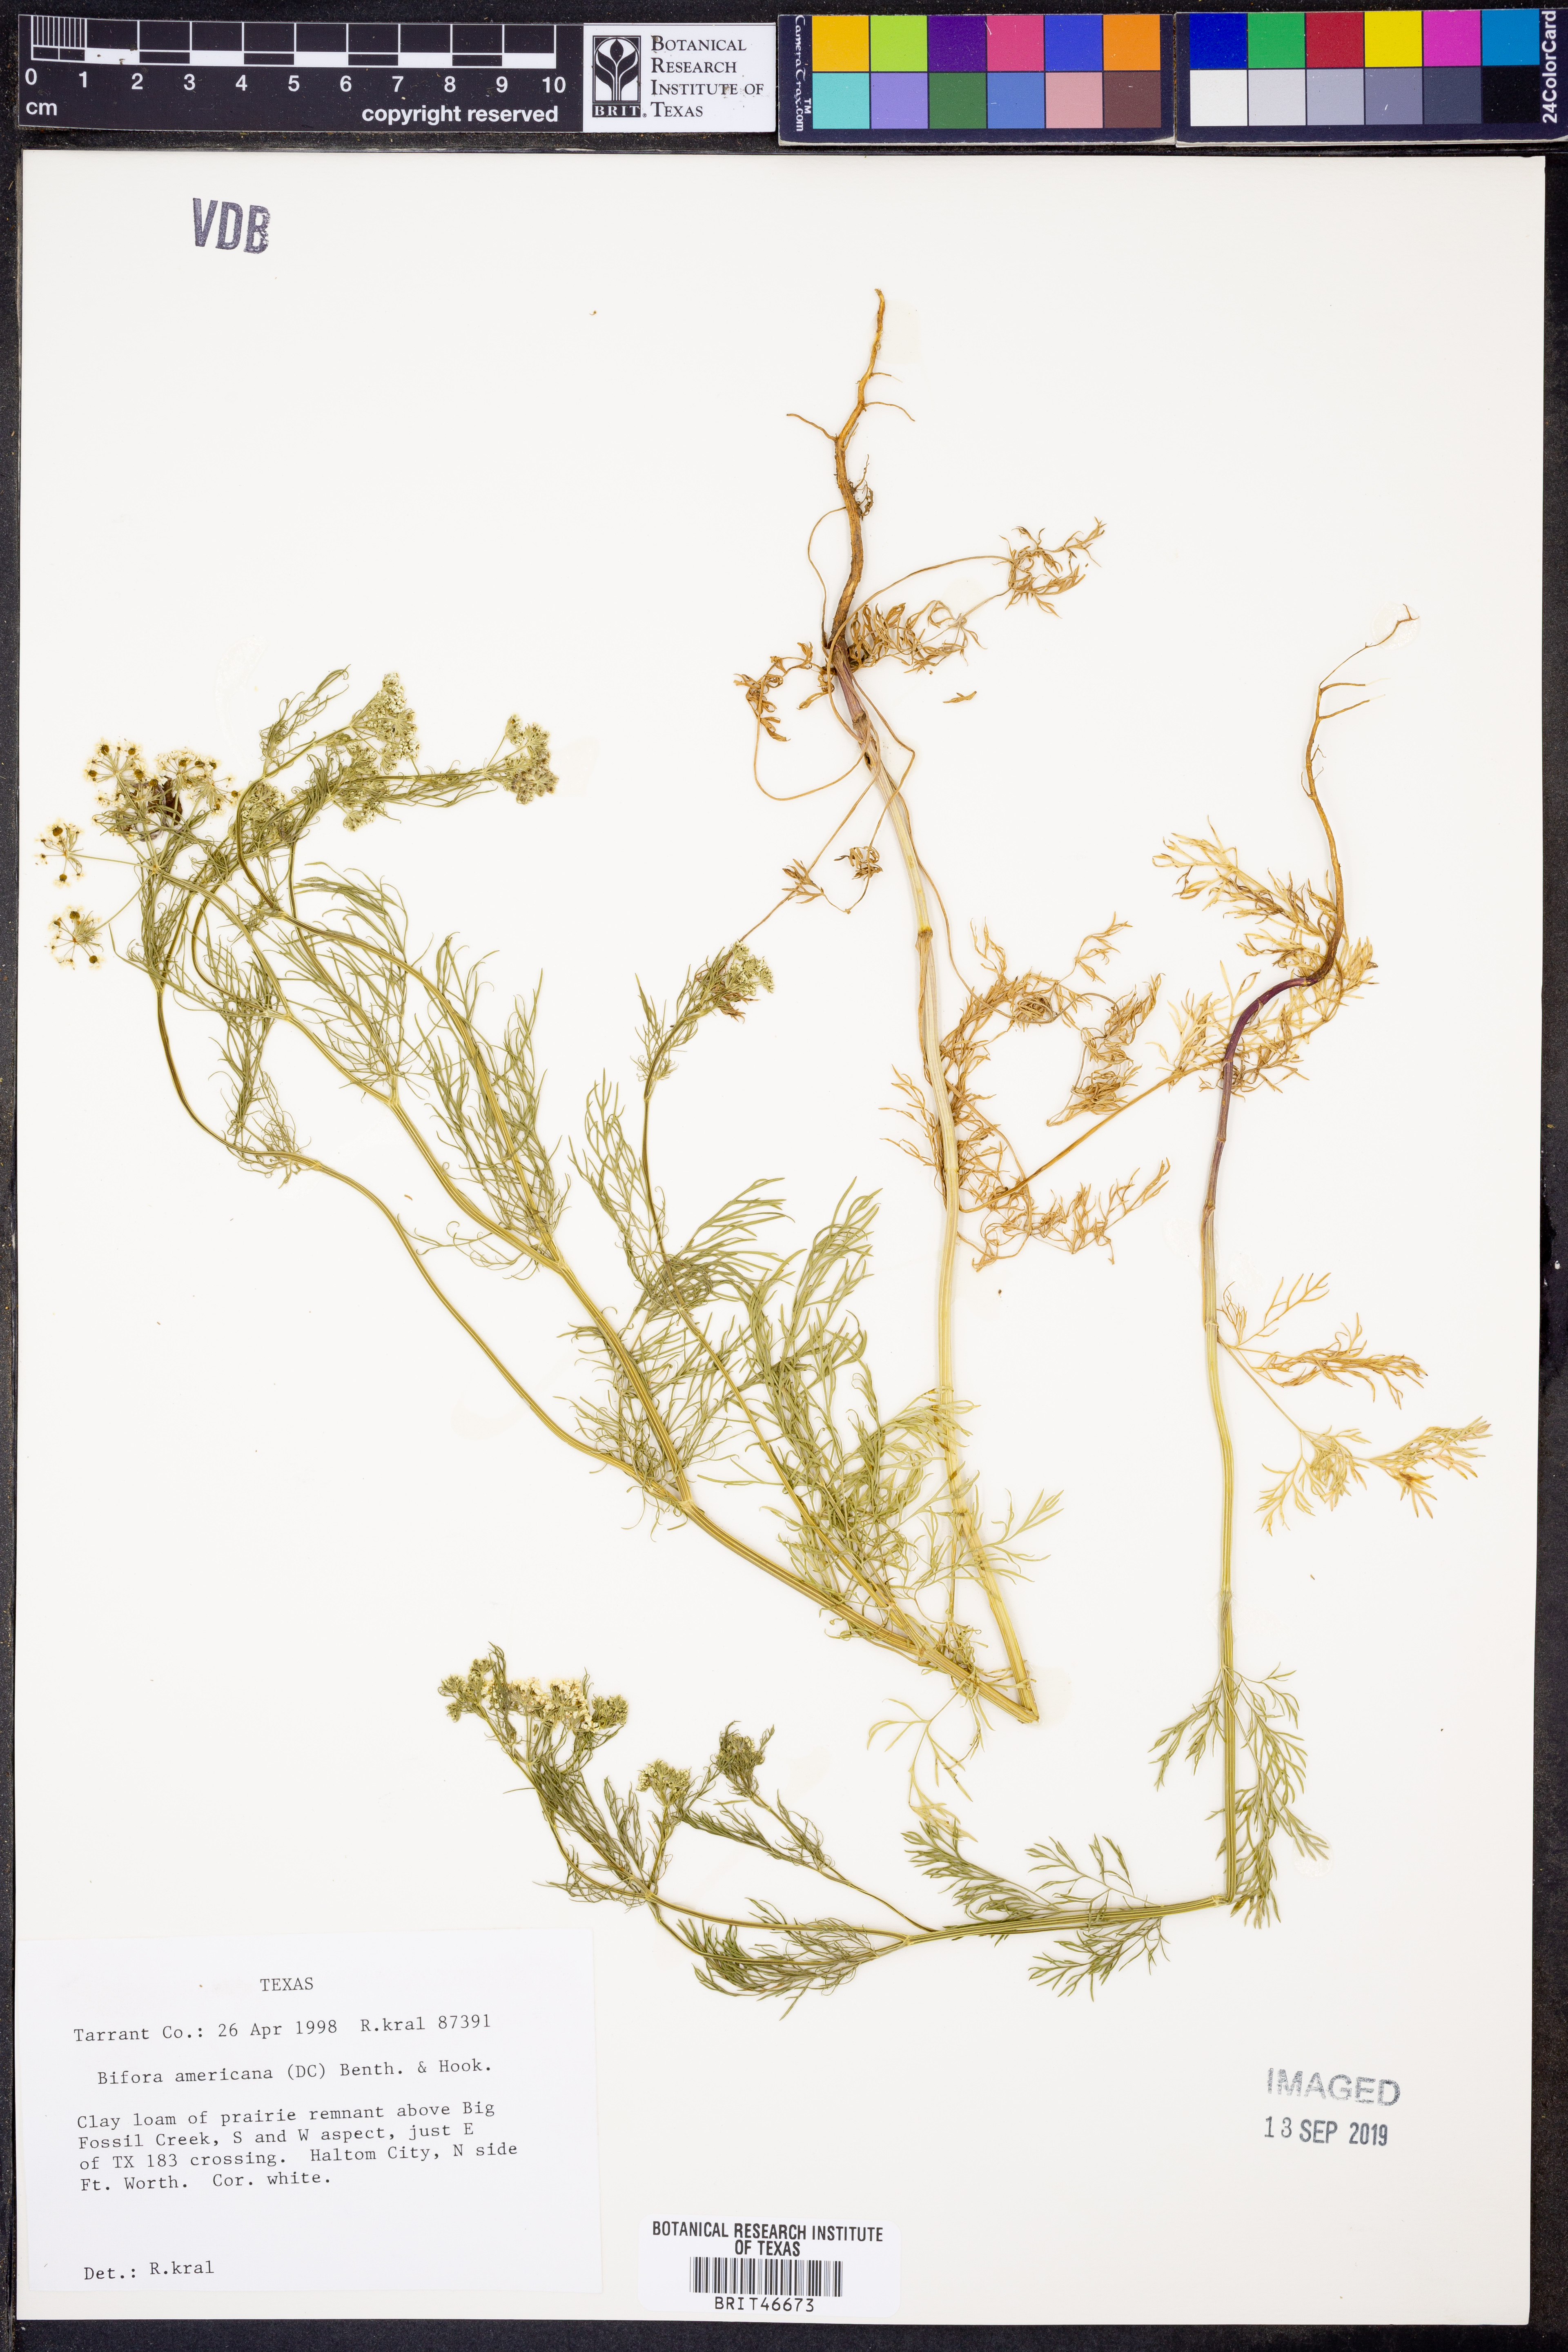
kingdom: Plantae
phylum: Tracheophyta
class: Magnoliopsida
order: Apiales
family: Apiaceae
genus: Atrema
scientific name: Atrema americanum
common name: Prairie-bishop
